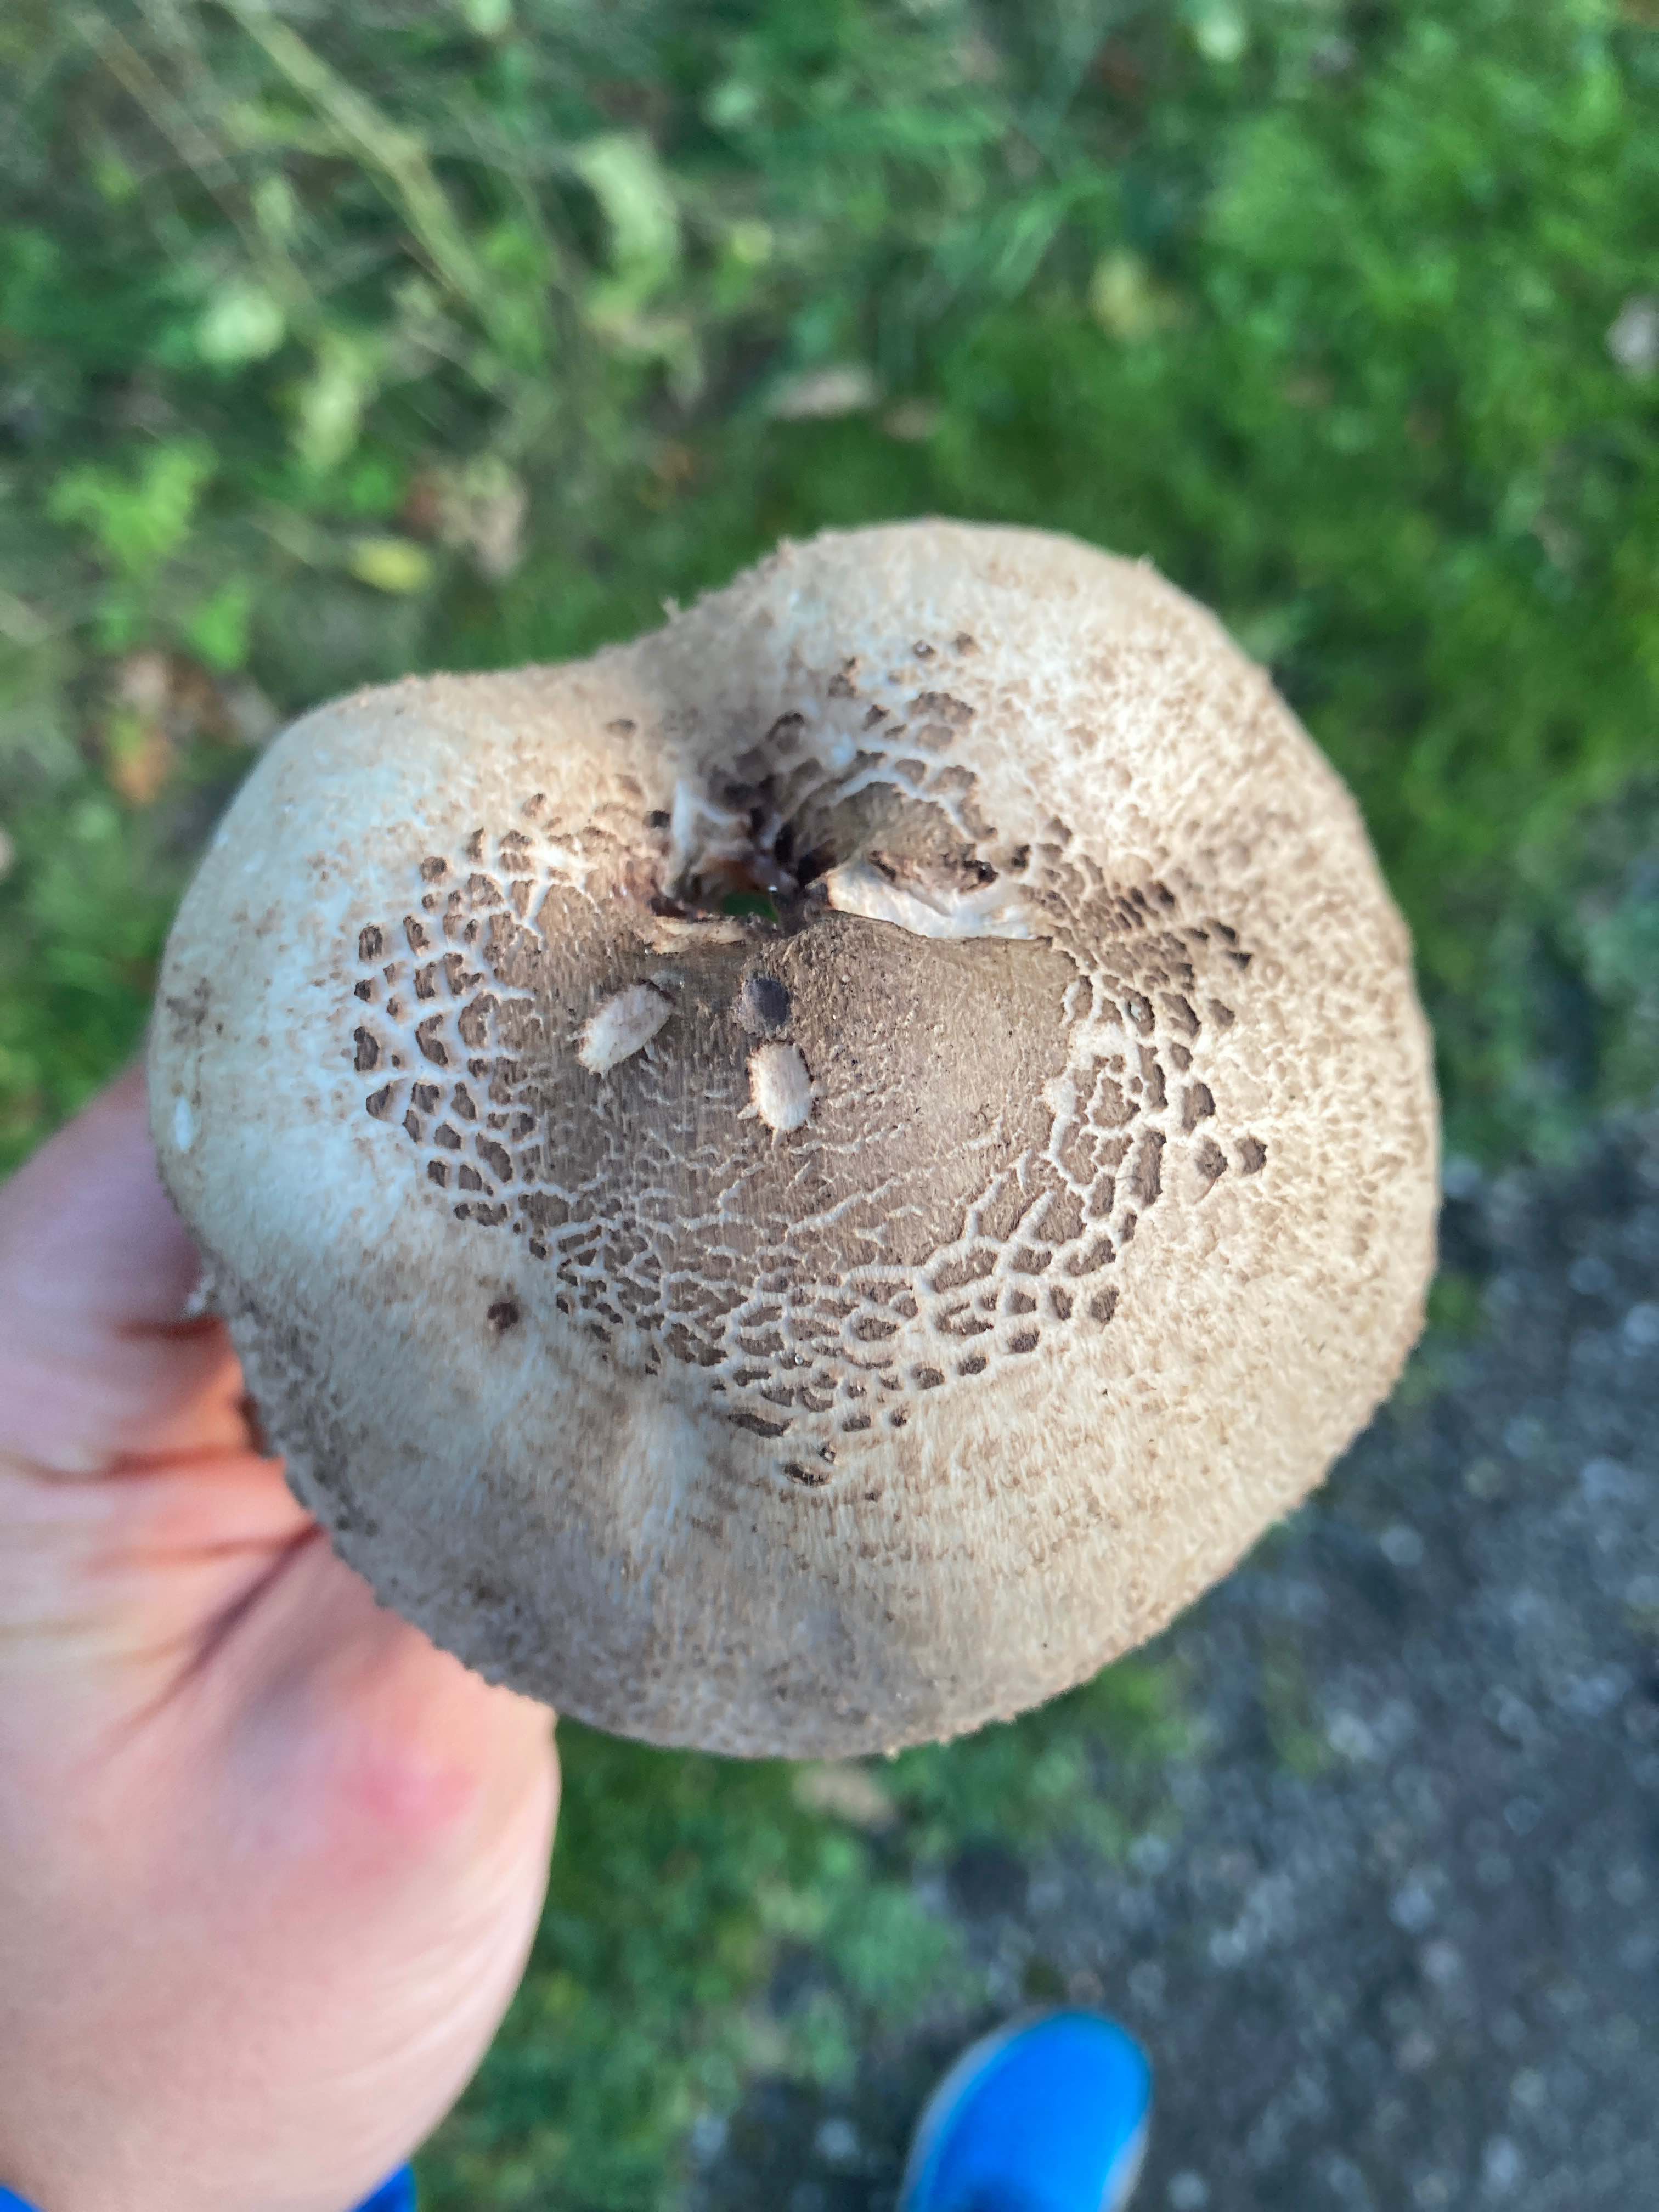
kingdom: Fungi
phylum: Basidiomycota
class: Agaricomycetes
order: Agaricales
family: Agaricaceae
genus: Macrolepiota
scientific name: Macrolepiota procera
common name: stor kæmpeparasolhat
